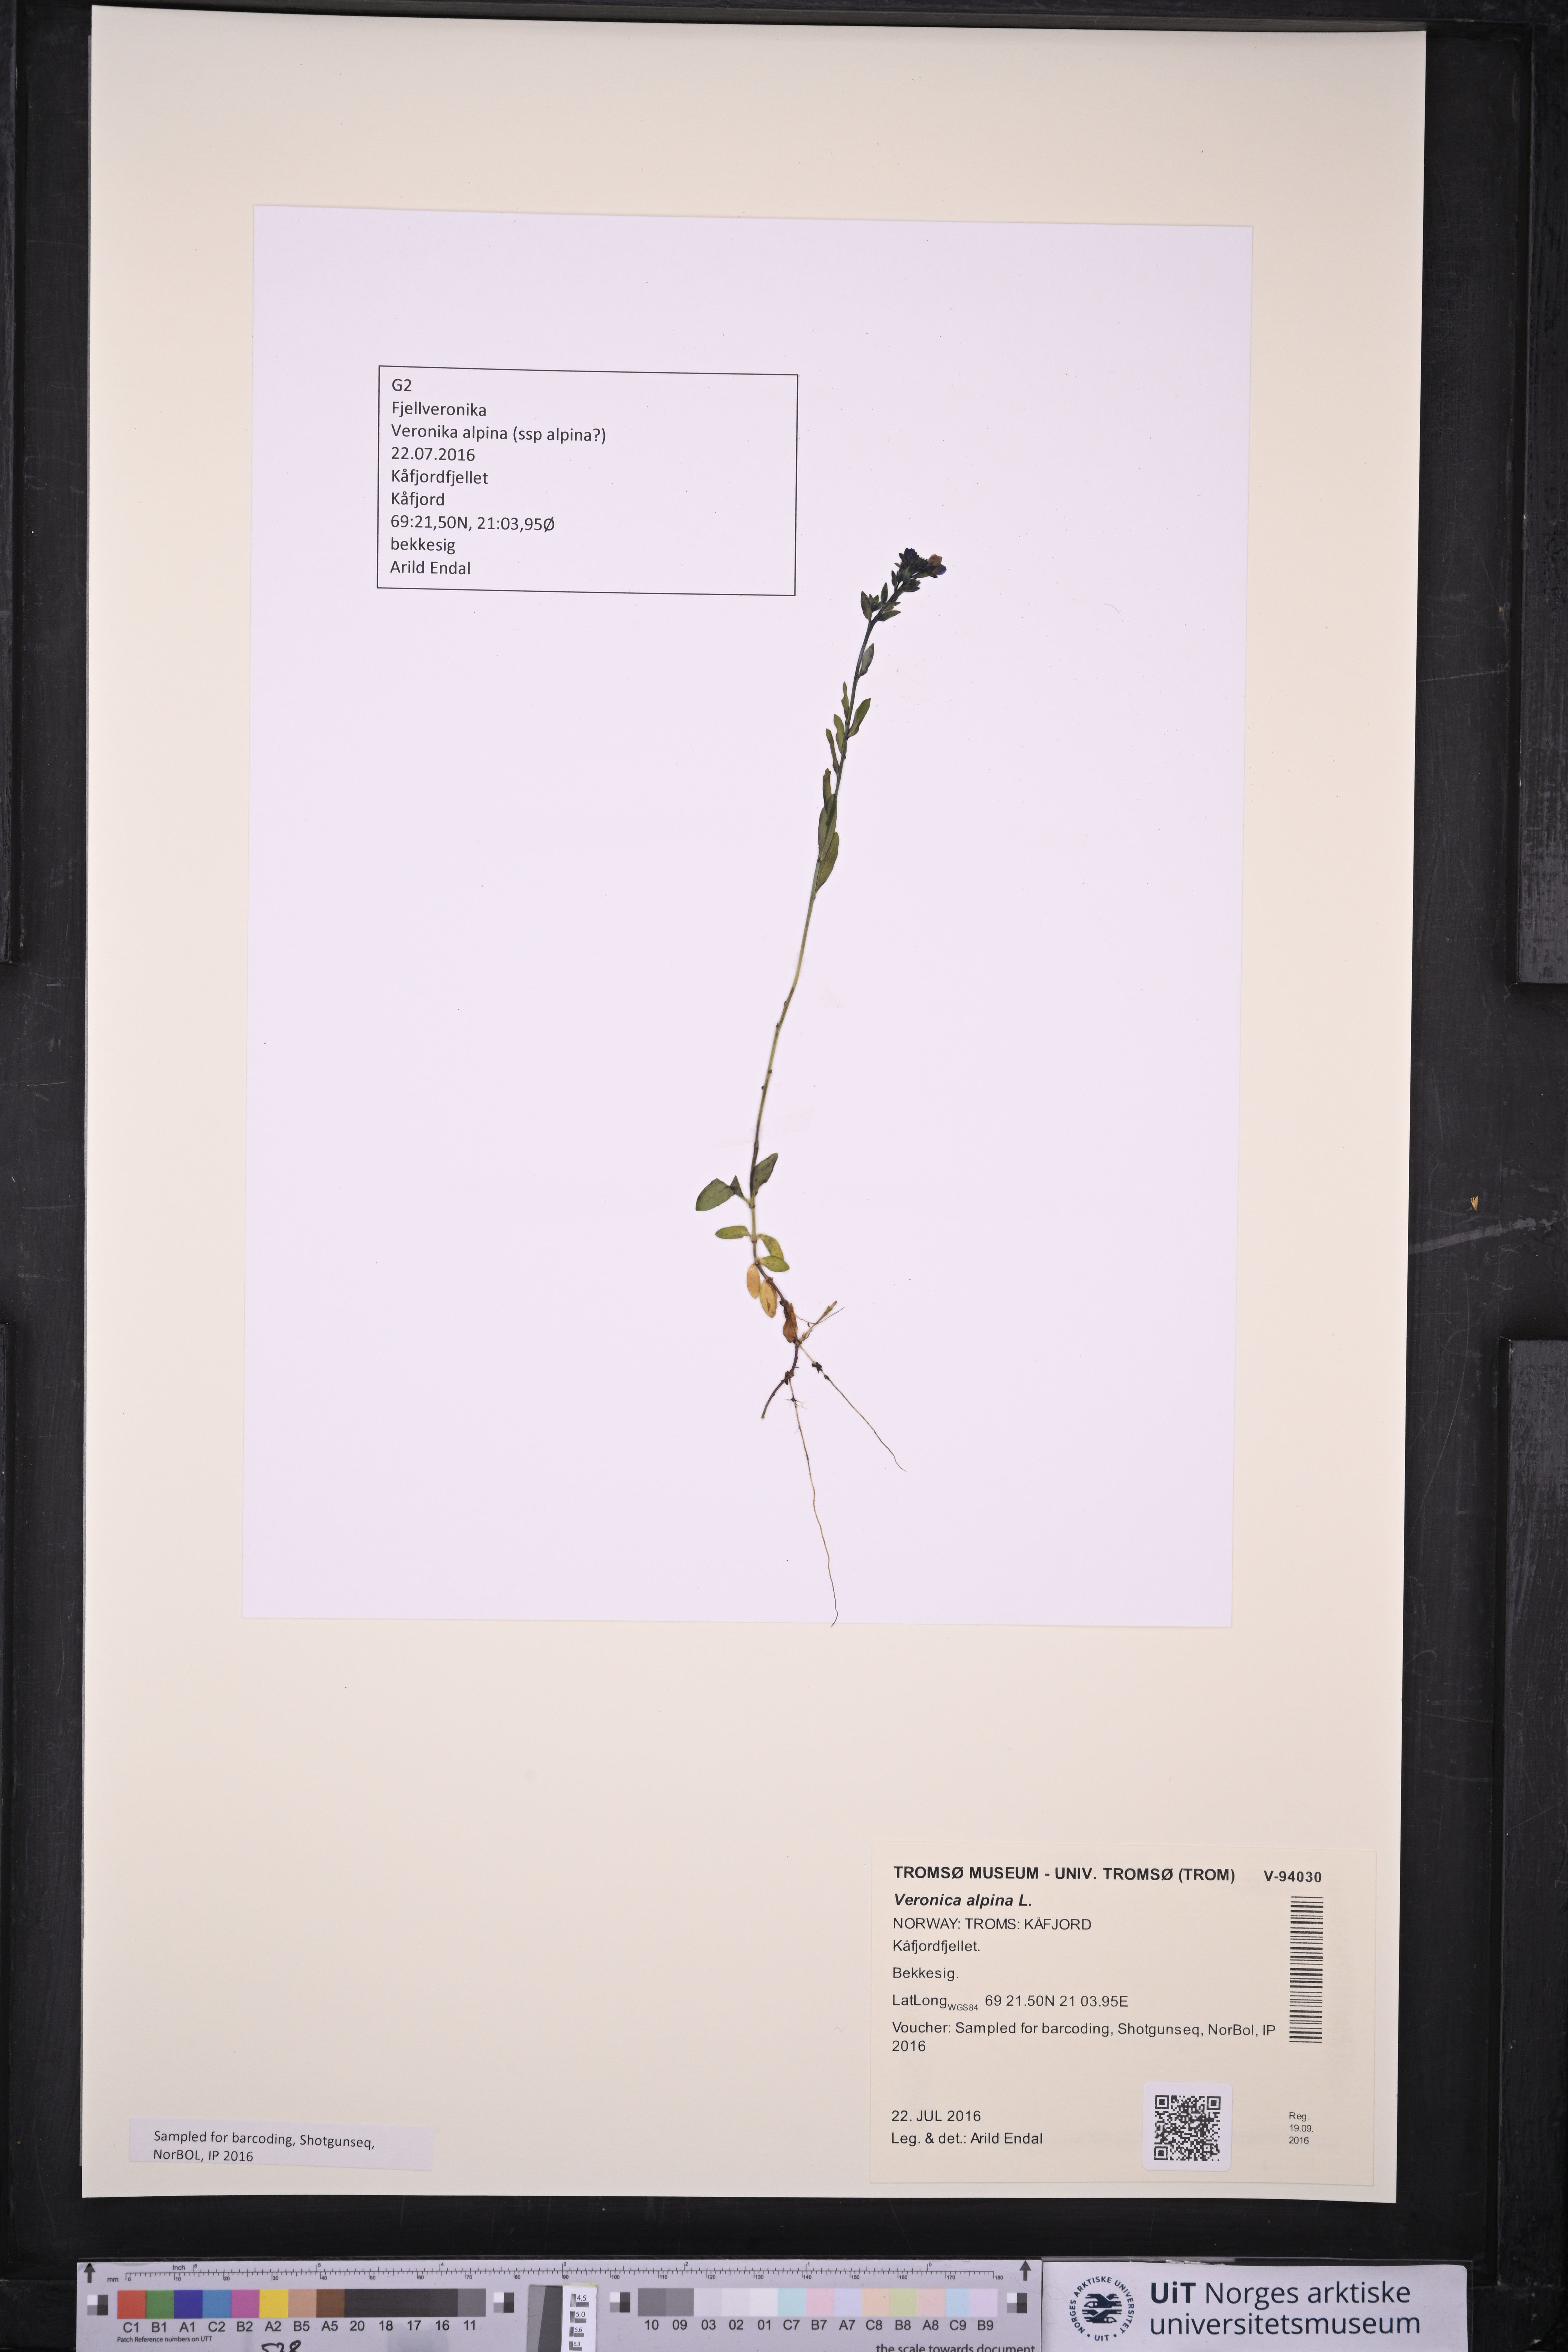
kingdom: Plantae
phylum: Tracheophyta
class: Magnoliopsida
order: Lamiales
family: Plantaginaceae
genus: Veronica
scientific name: Veronica alpina
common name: Alpine speedwell
